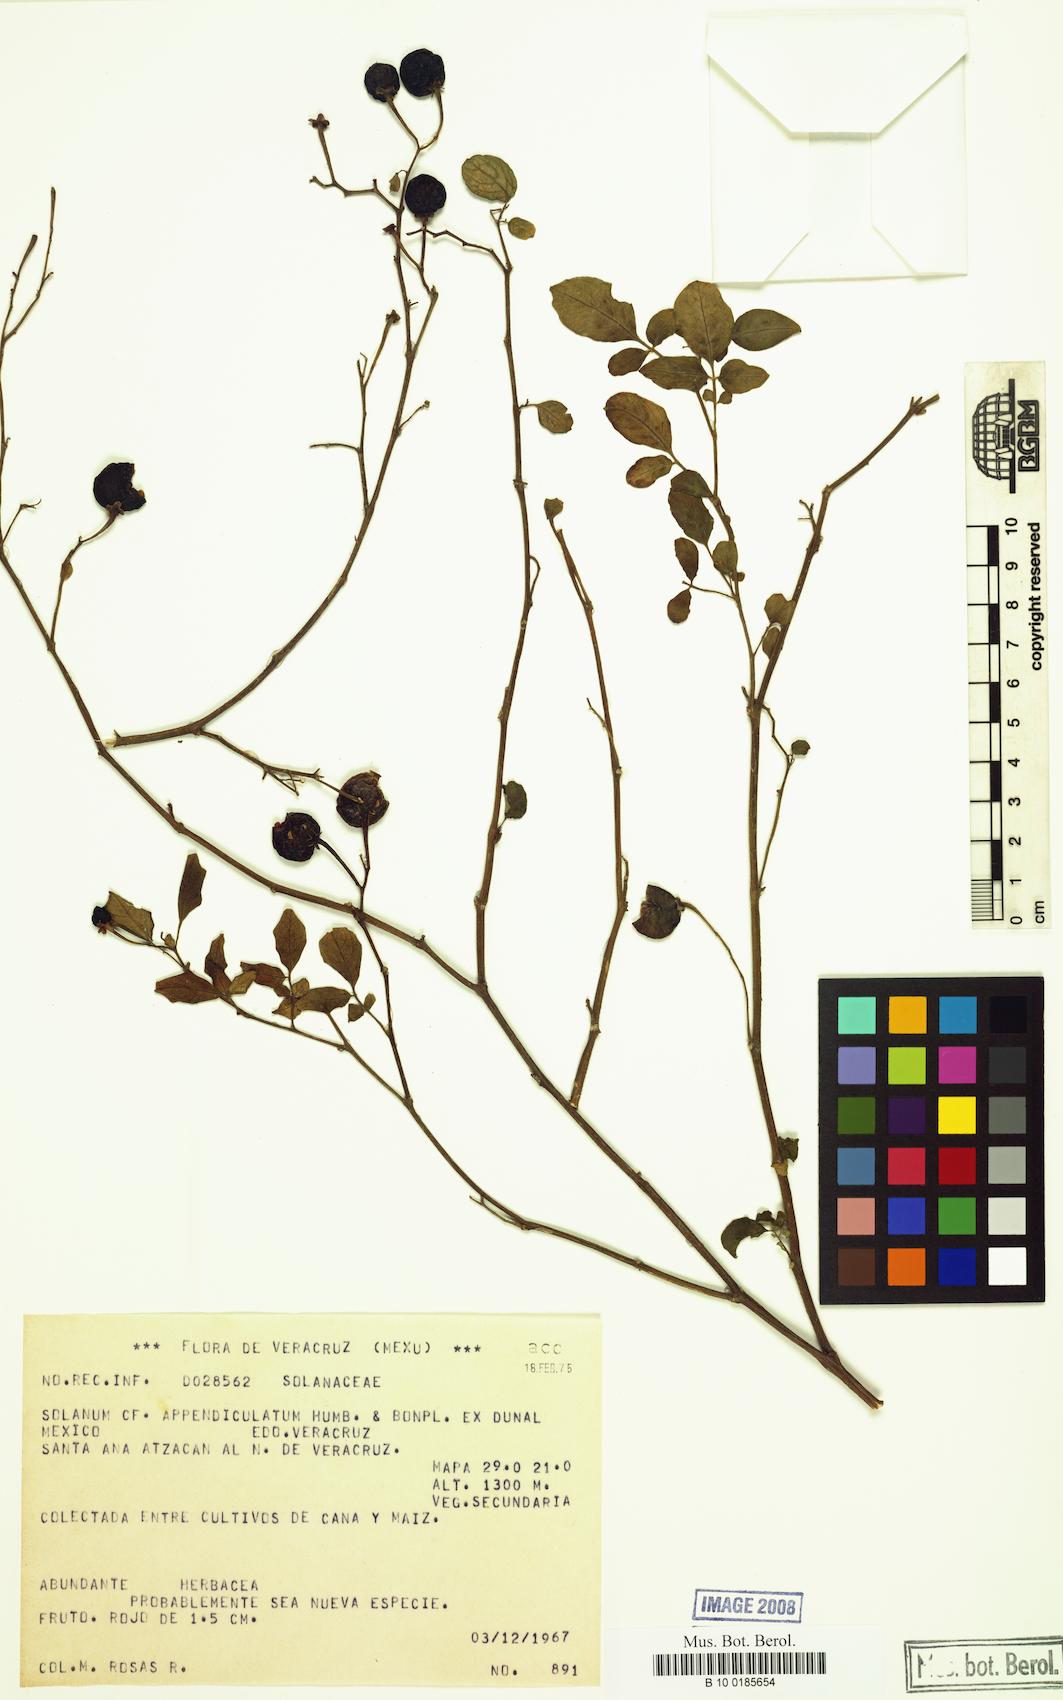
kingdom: Plantae
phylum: Tracheophyta
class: Magnoliopsida
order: Solanales
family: Solanaceae
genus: Solanum
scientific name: Solanum appendiculatum
